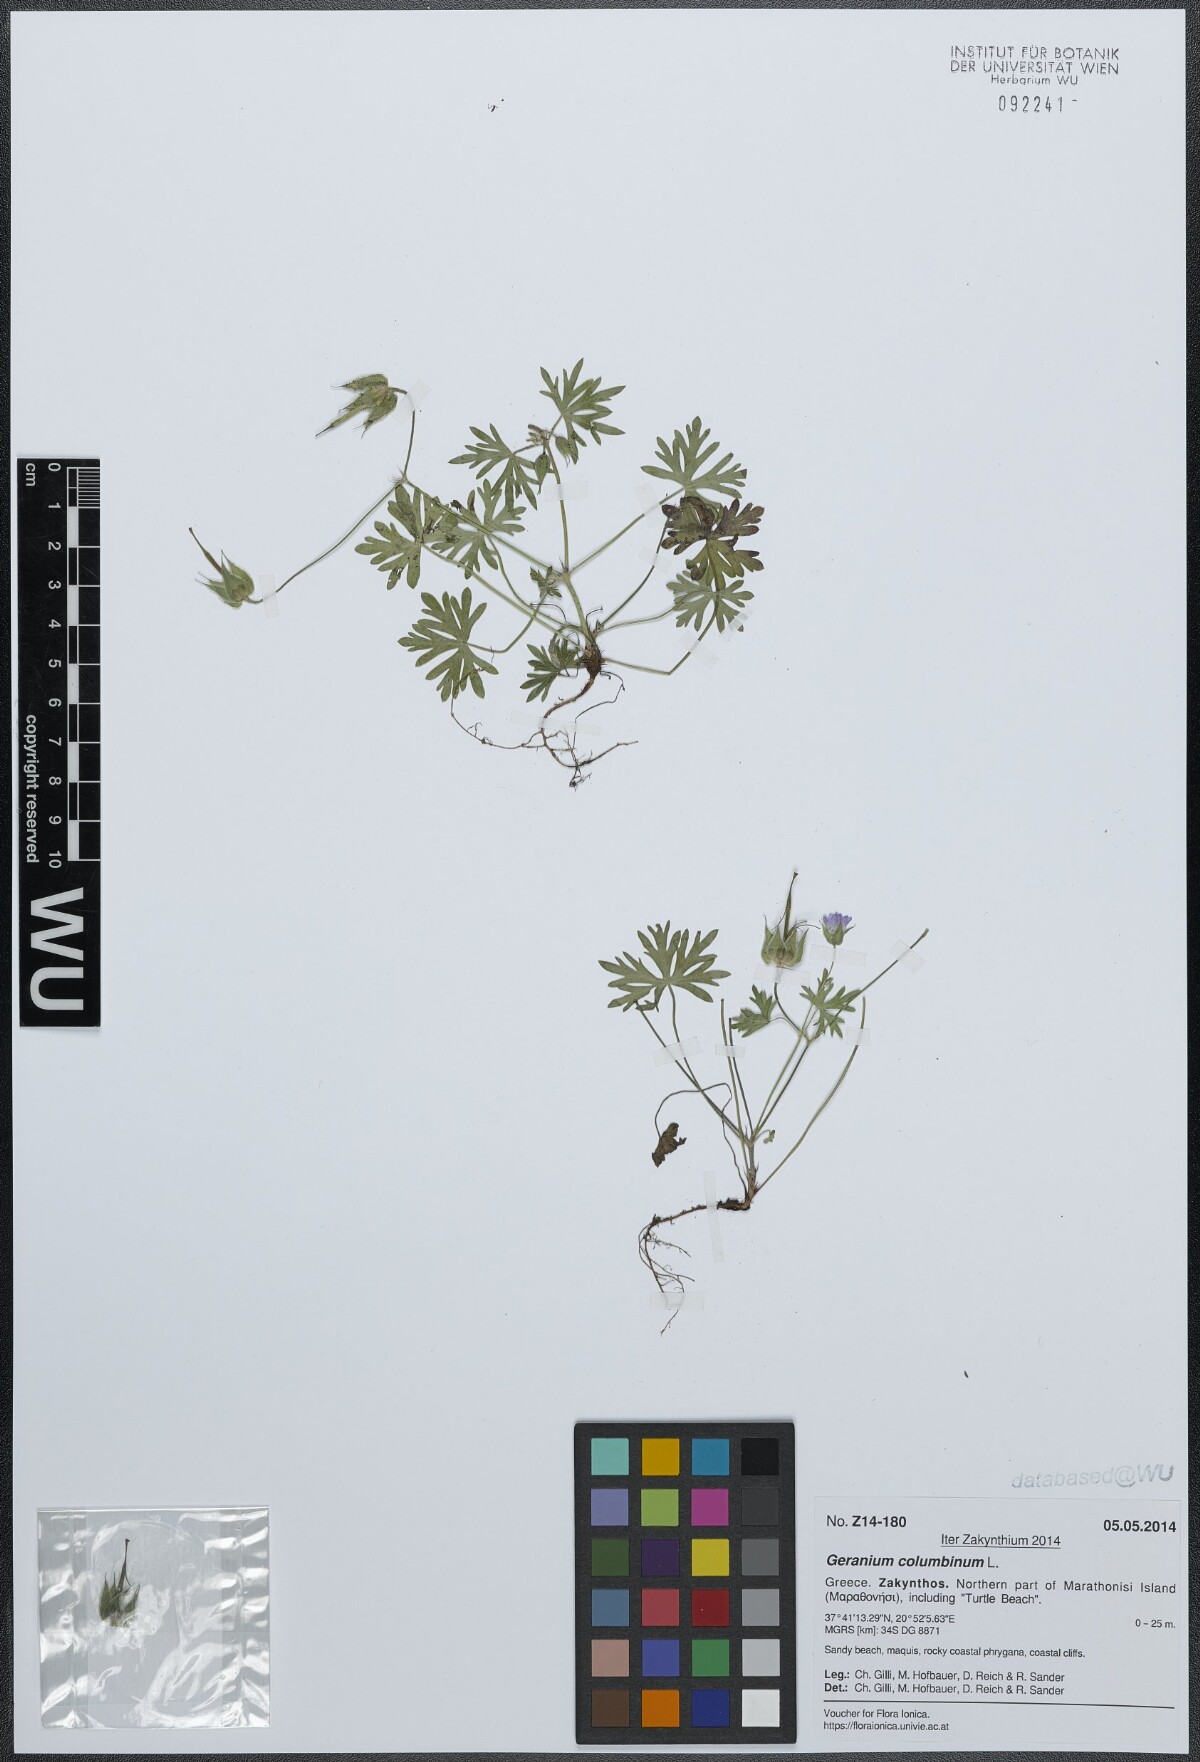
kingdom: Plantae
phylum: Tracheophyta
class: Magnoliopsida
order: Geraniales
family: Geraniaceae
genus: Geranium
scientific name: Geranium columbinum
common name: Long-stalked crane's-bill
